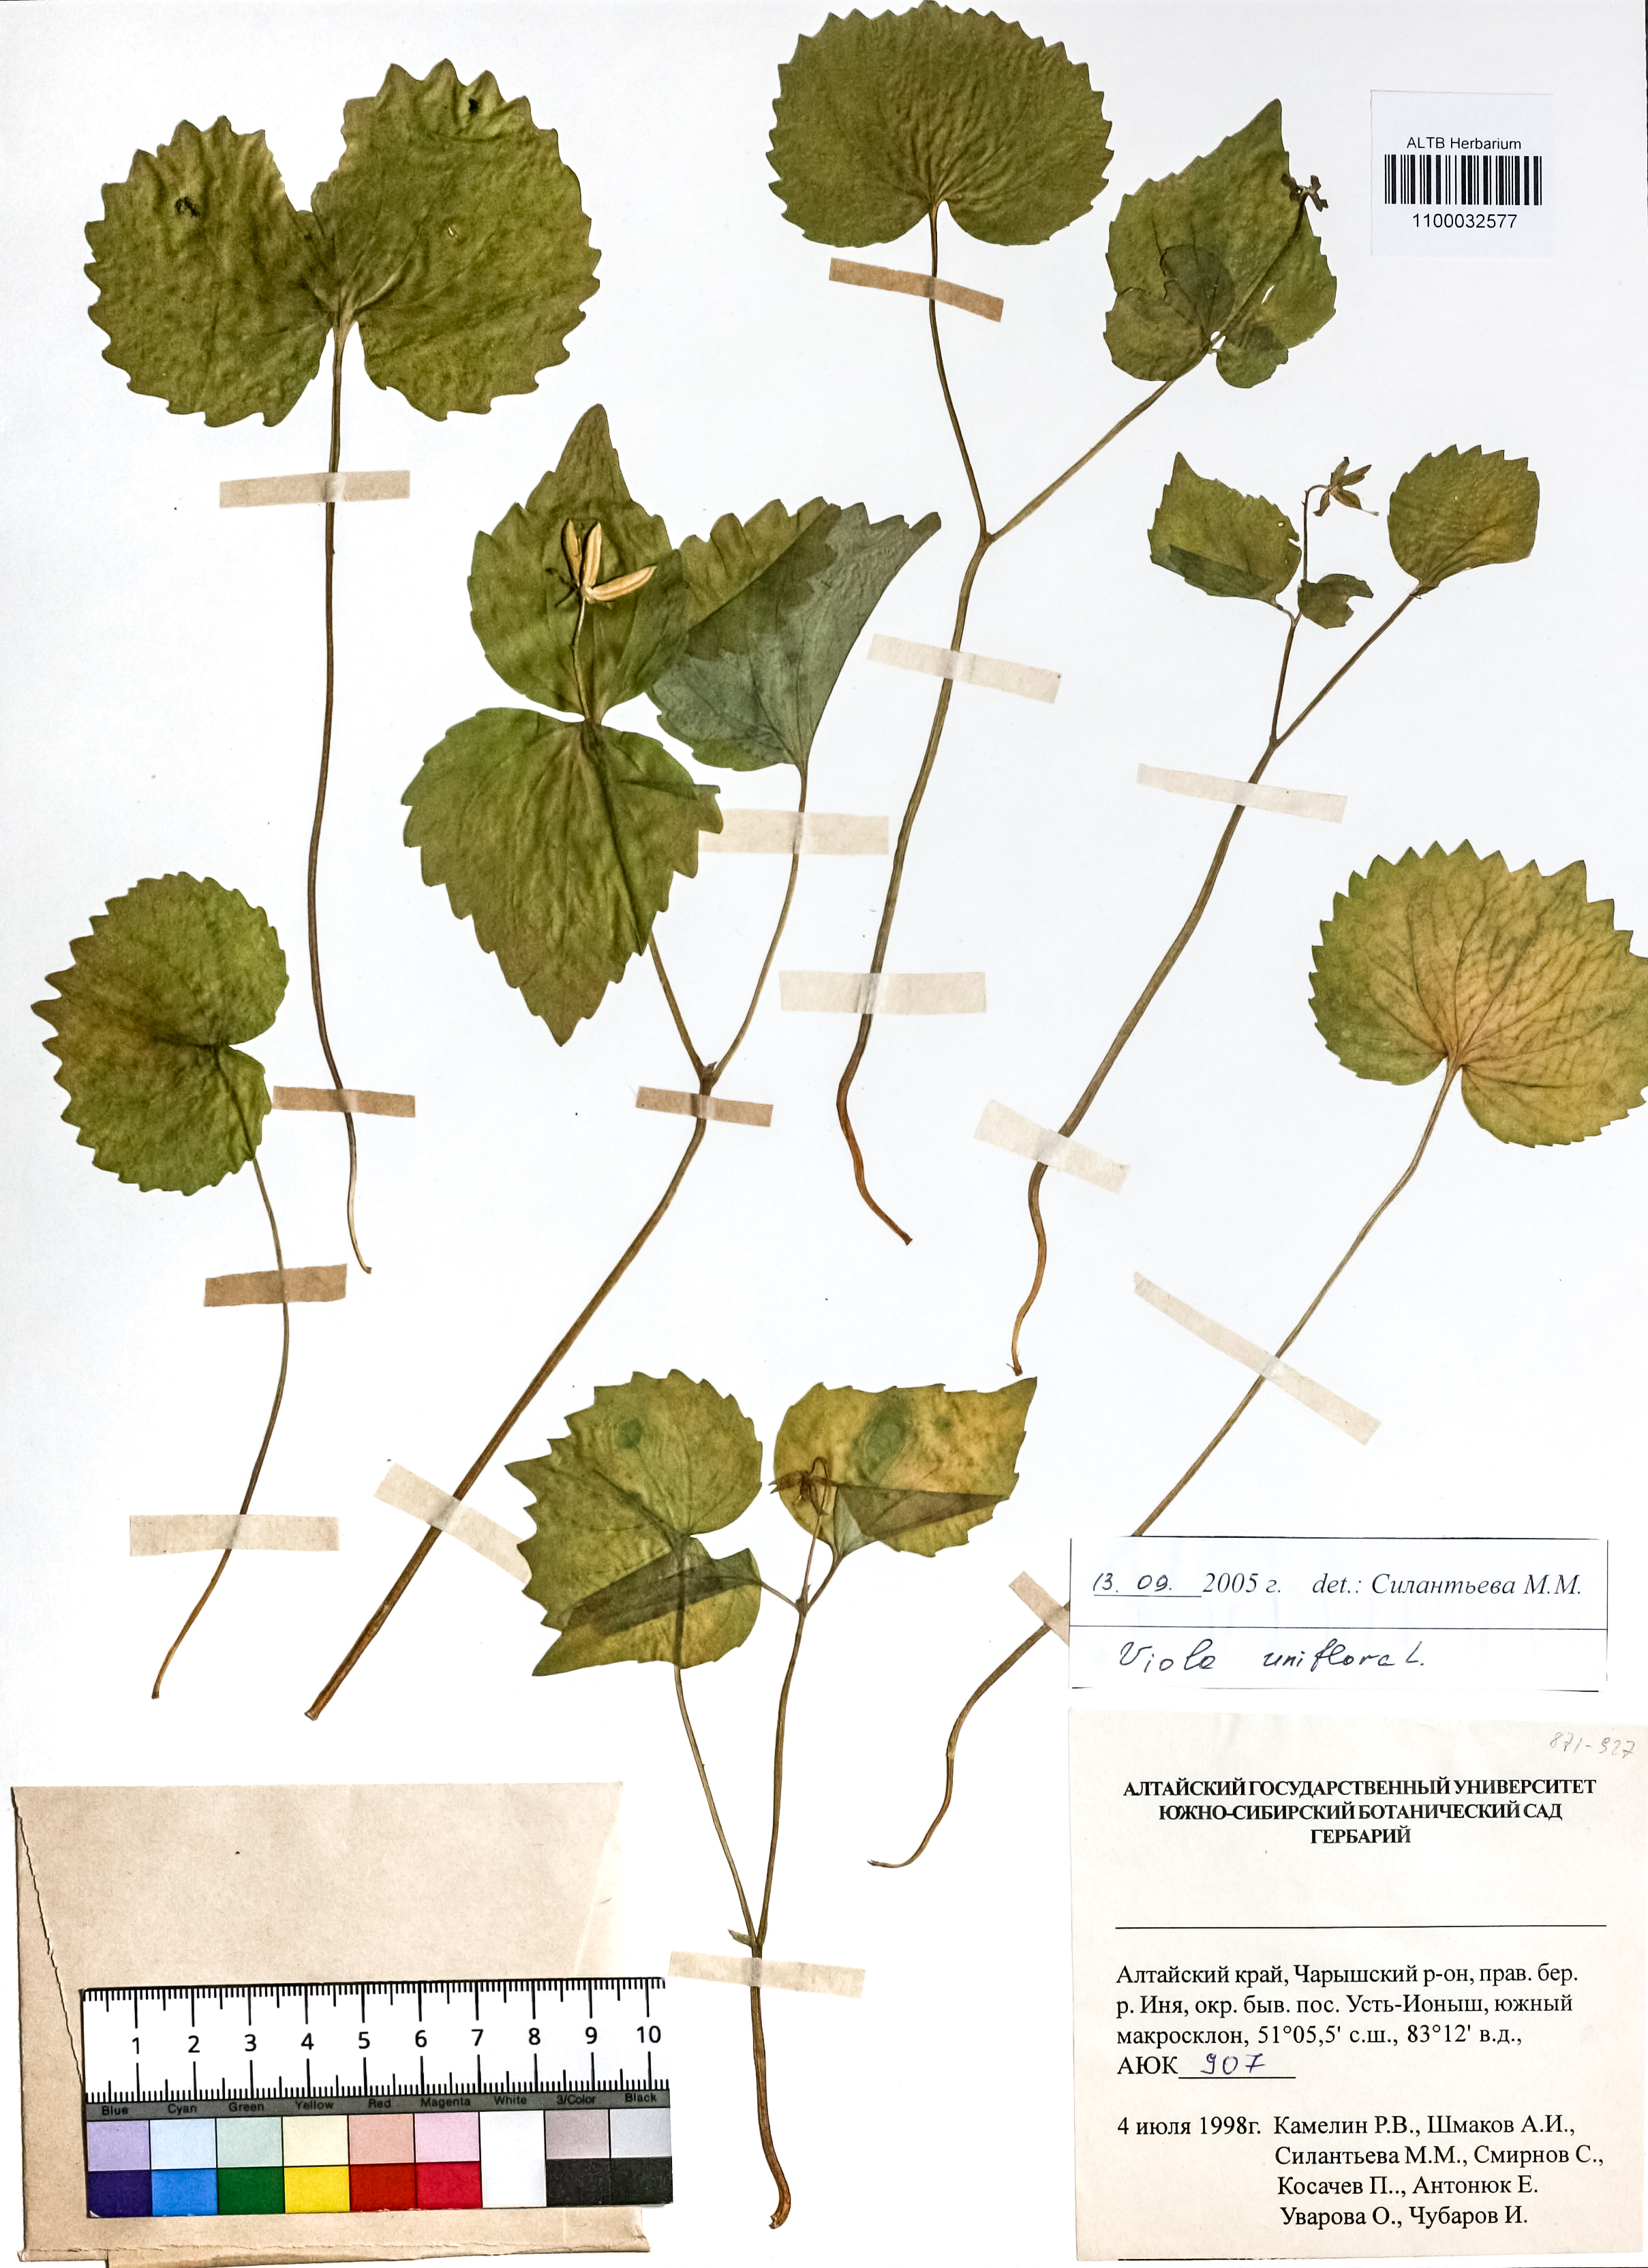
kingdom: Plantae
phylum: Tracheophyta
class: Magnoliopsida
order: Malpighiales
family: Violaceae
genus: Viola
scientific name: Viola uniflora
